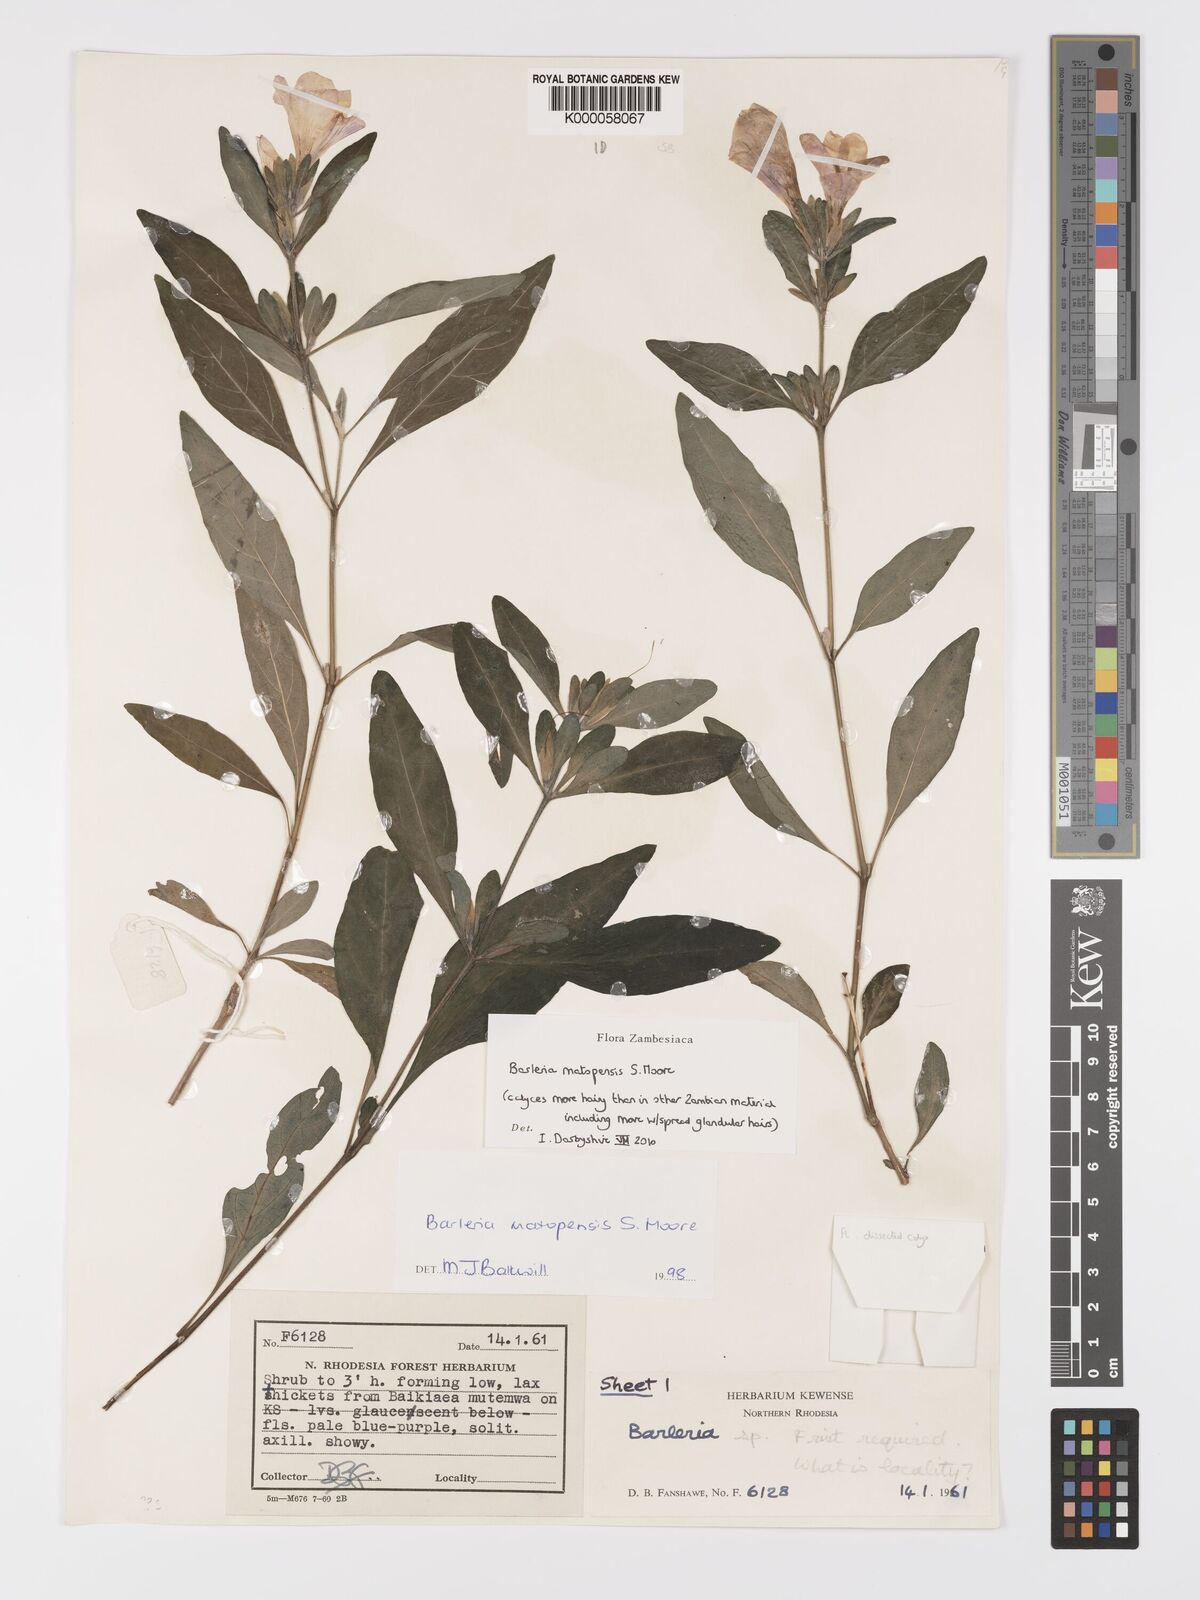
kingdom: Plantae
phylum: Tracheophyta
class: Magnoliopsida
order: Lamiales
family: Acanthaceae
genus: Barleria
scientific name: Barleria matopensis
